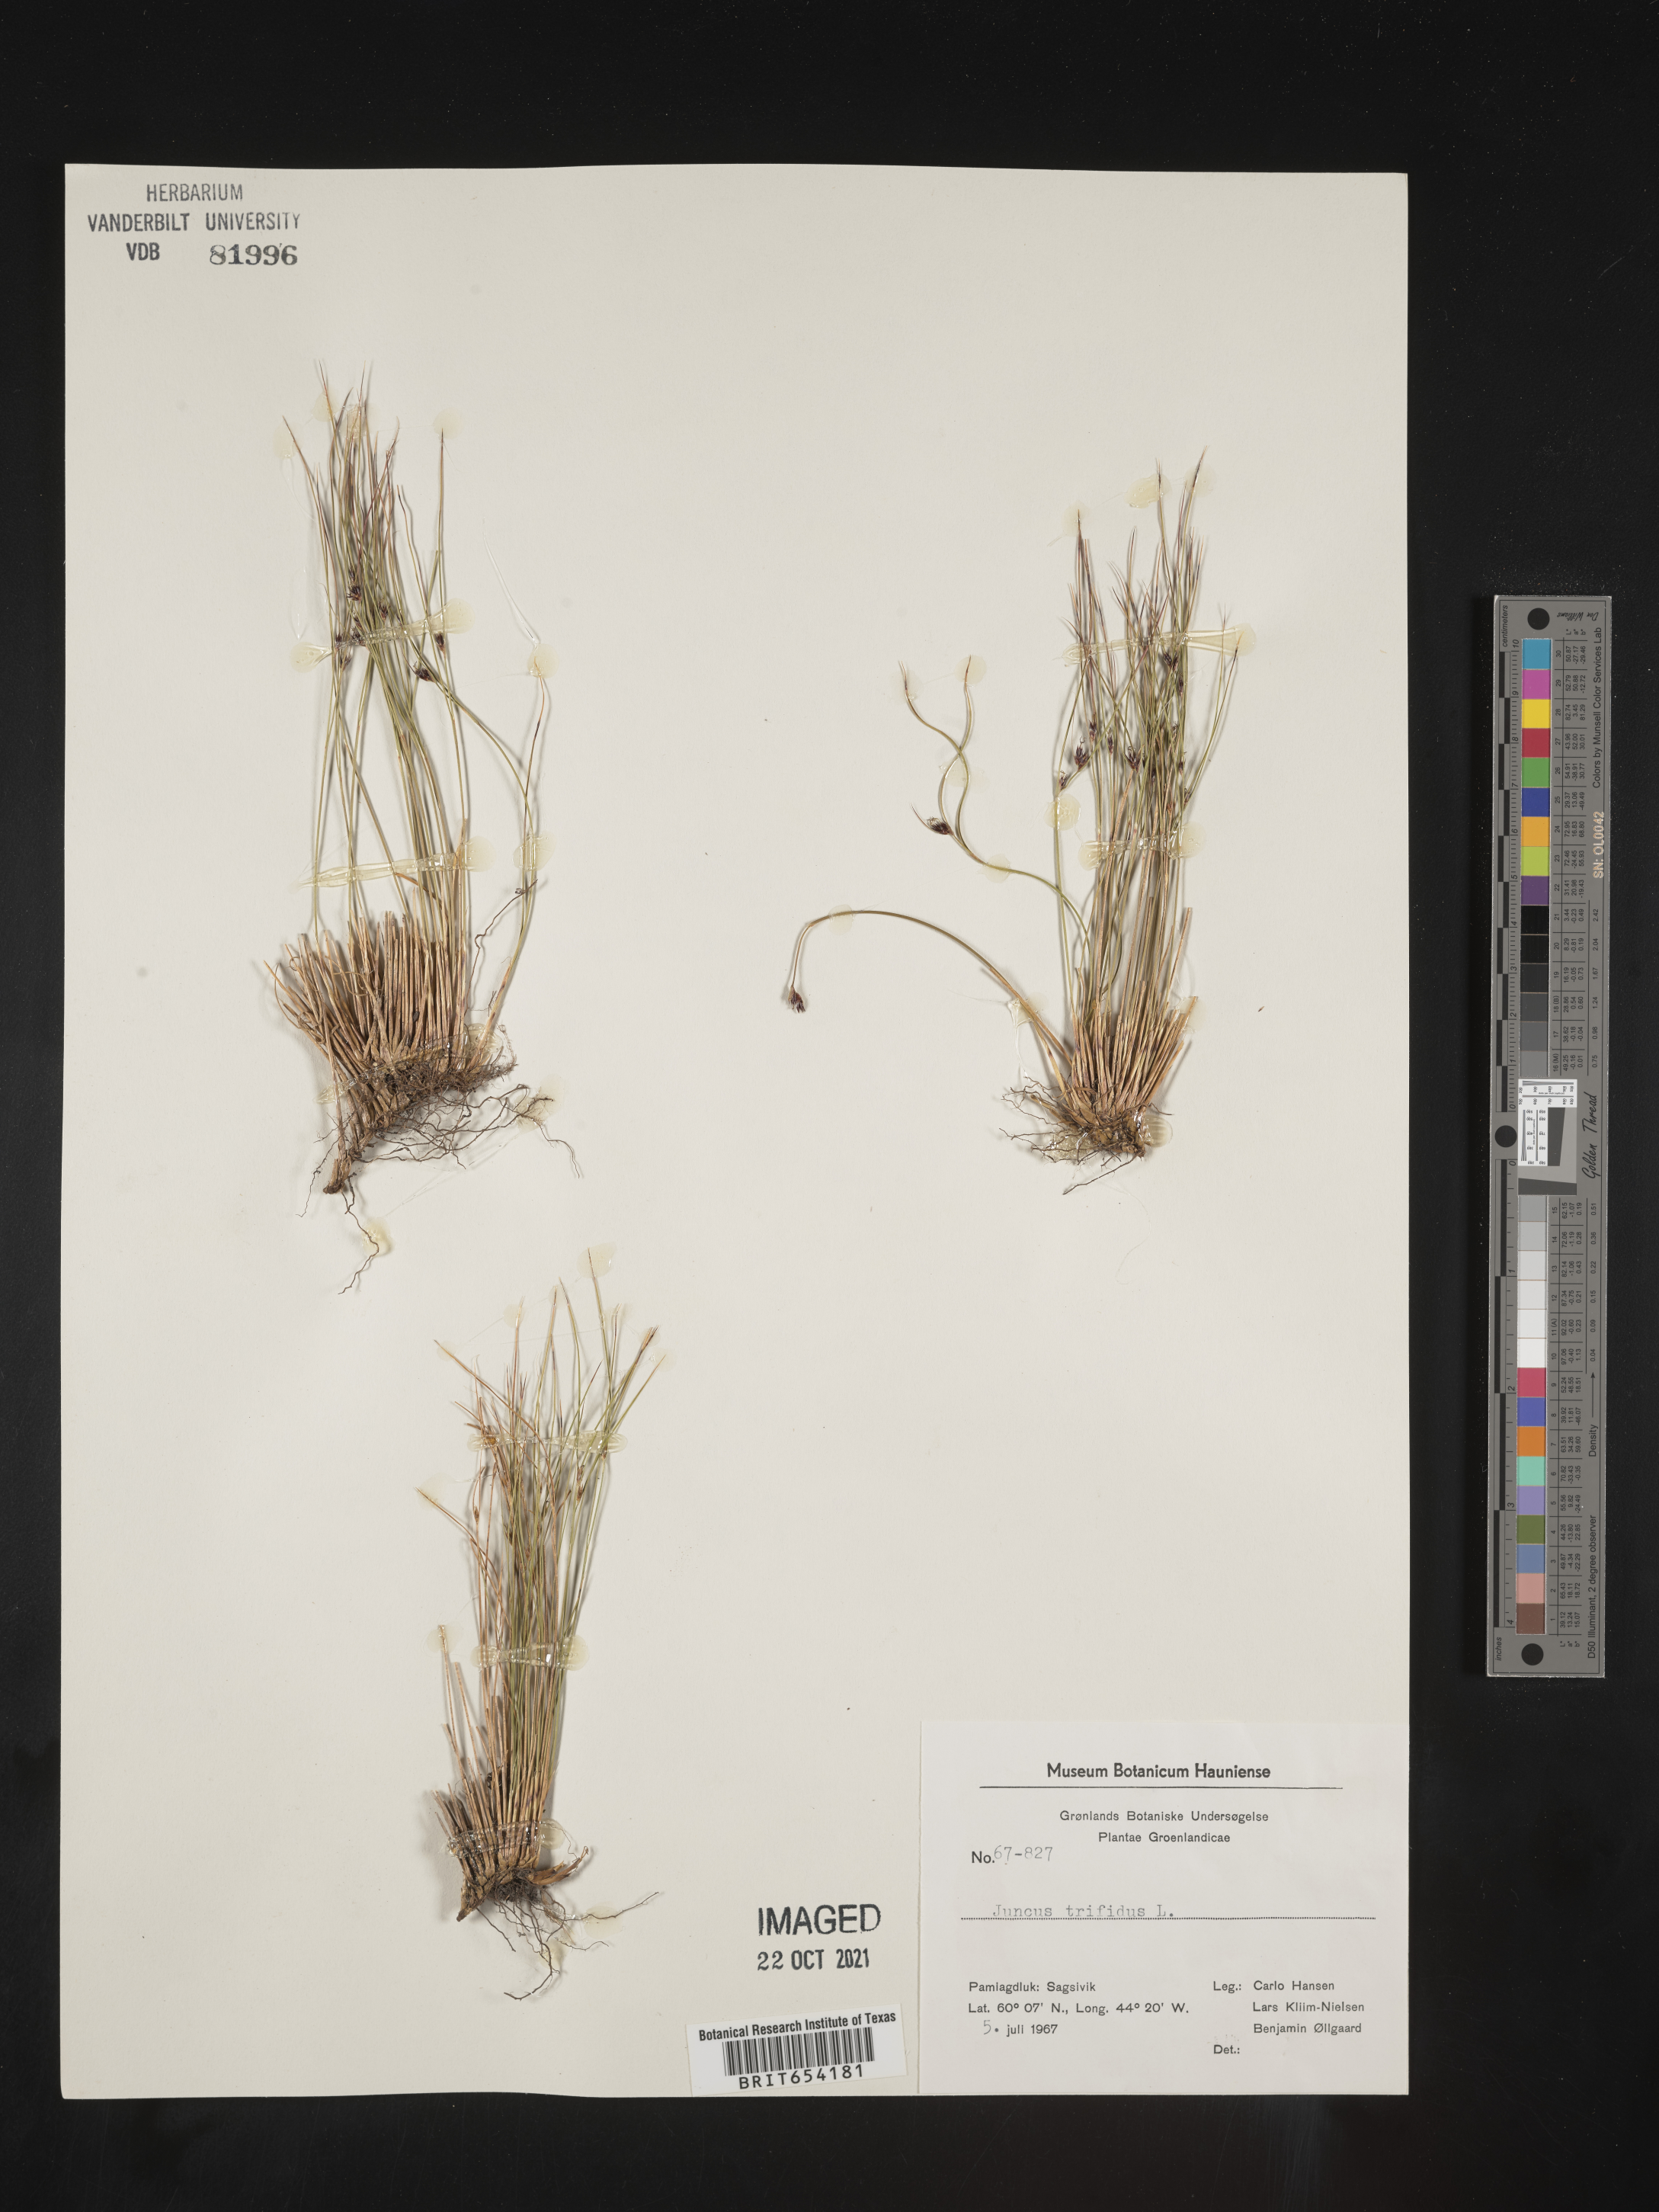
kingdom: Plantae
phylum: Tracheophyta
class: Liliopsida
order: Poales
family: Juncaceae
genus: Juncus
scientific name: Juncus
